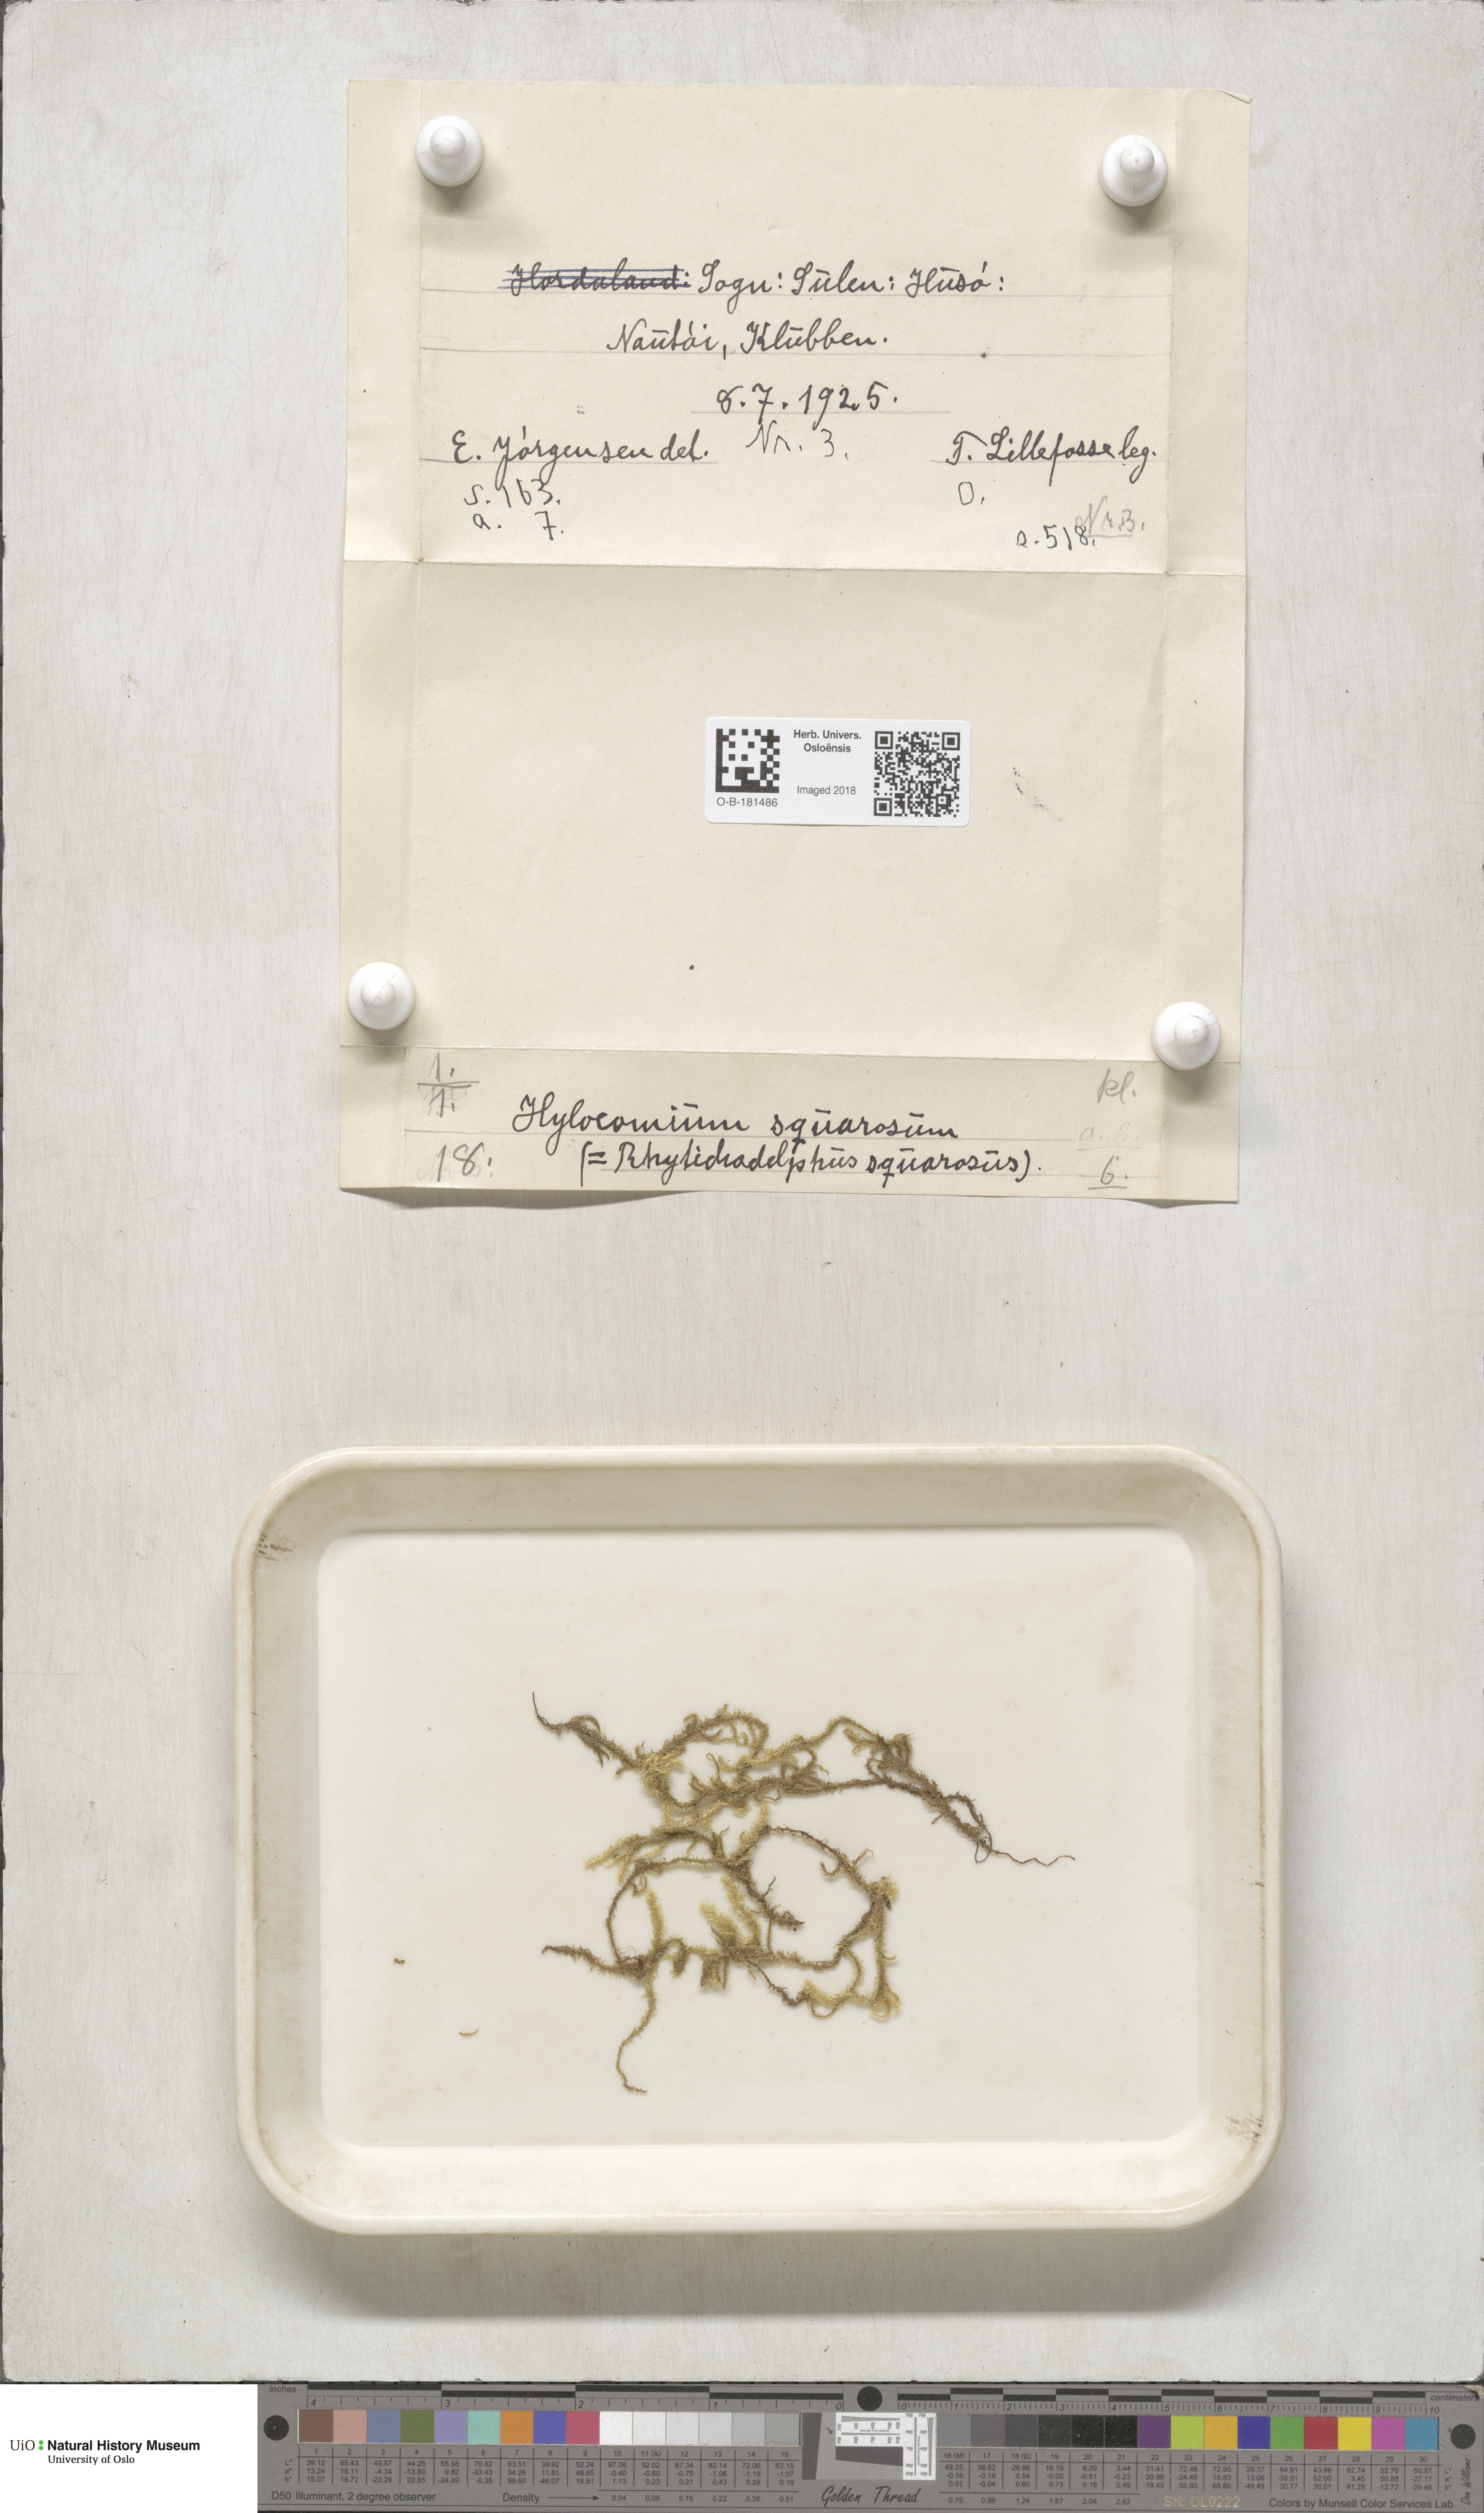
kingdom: Plantae
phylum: Bryophyta
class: Bryopsida
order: Hypnales
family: Hylocomiaceae
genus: Rhytidiadelphus
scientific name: Rhytidiadelphus squarrosus
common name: Springy turf-moss
